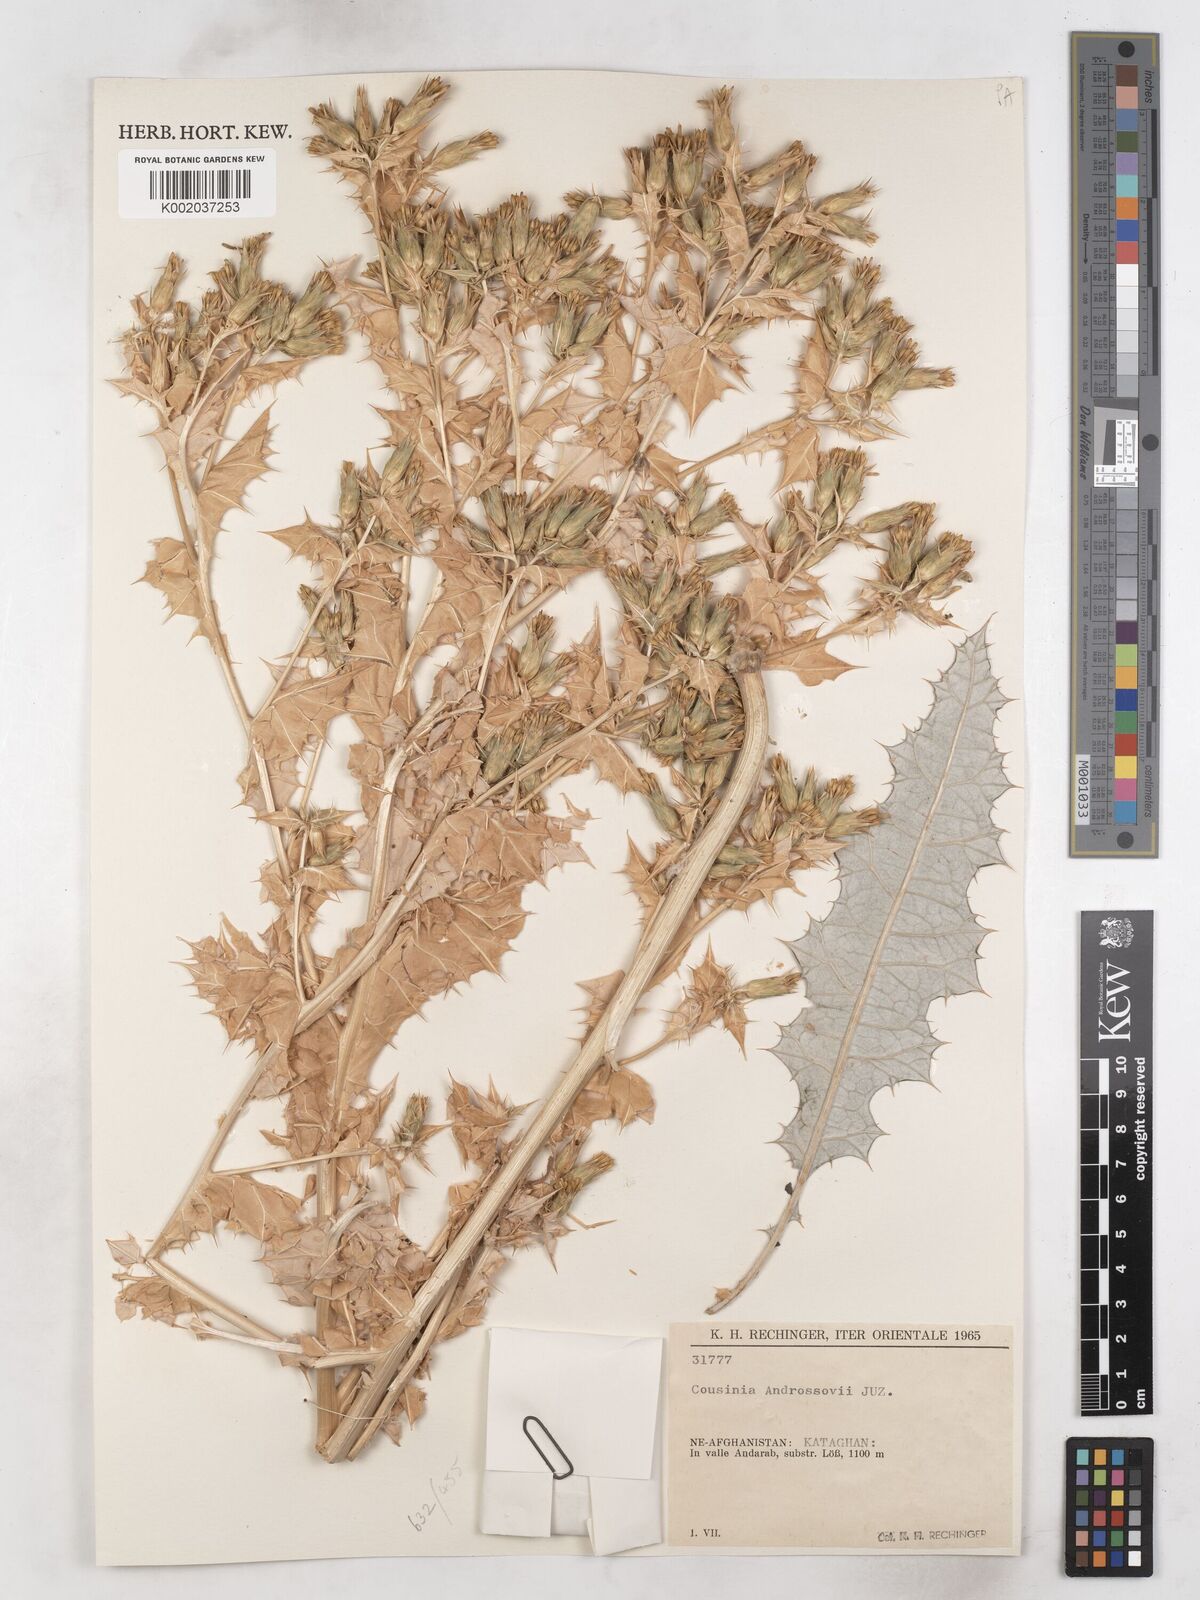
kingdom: Plantae
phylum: Tracheophyta
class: Magnoliopsida
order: Asterales
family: Asteraceae
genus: Cousinia
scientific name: Cousinia androssowii
